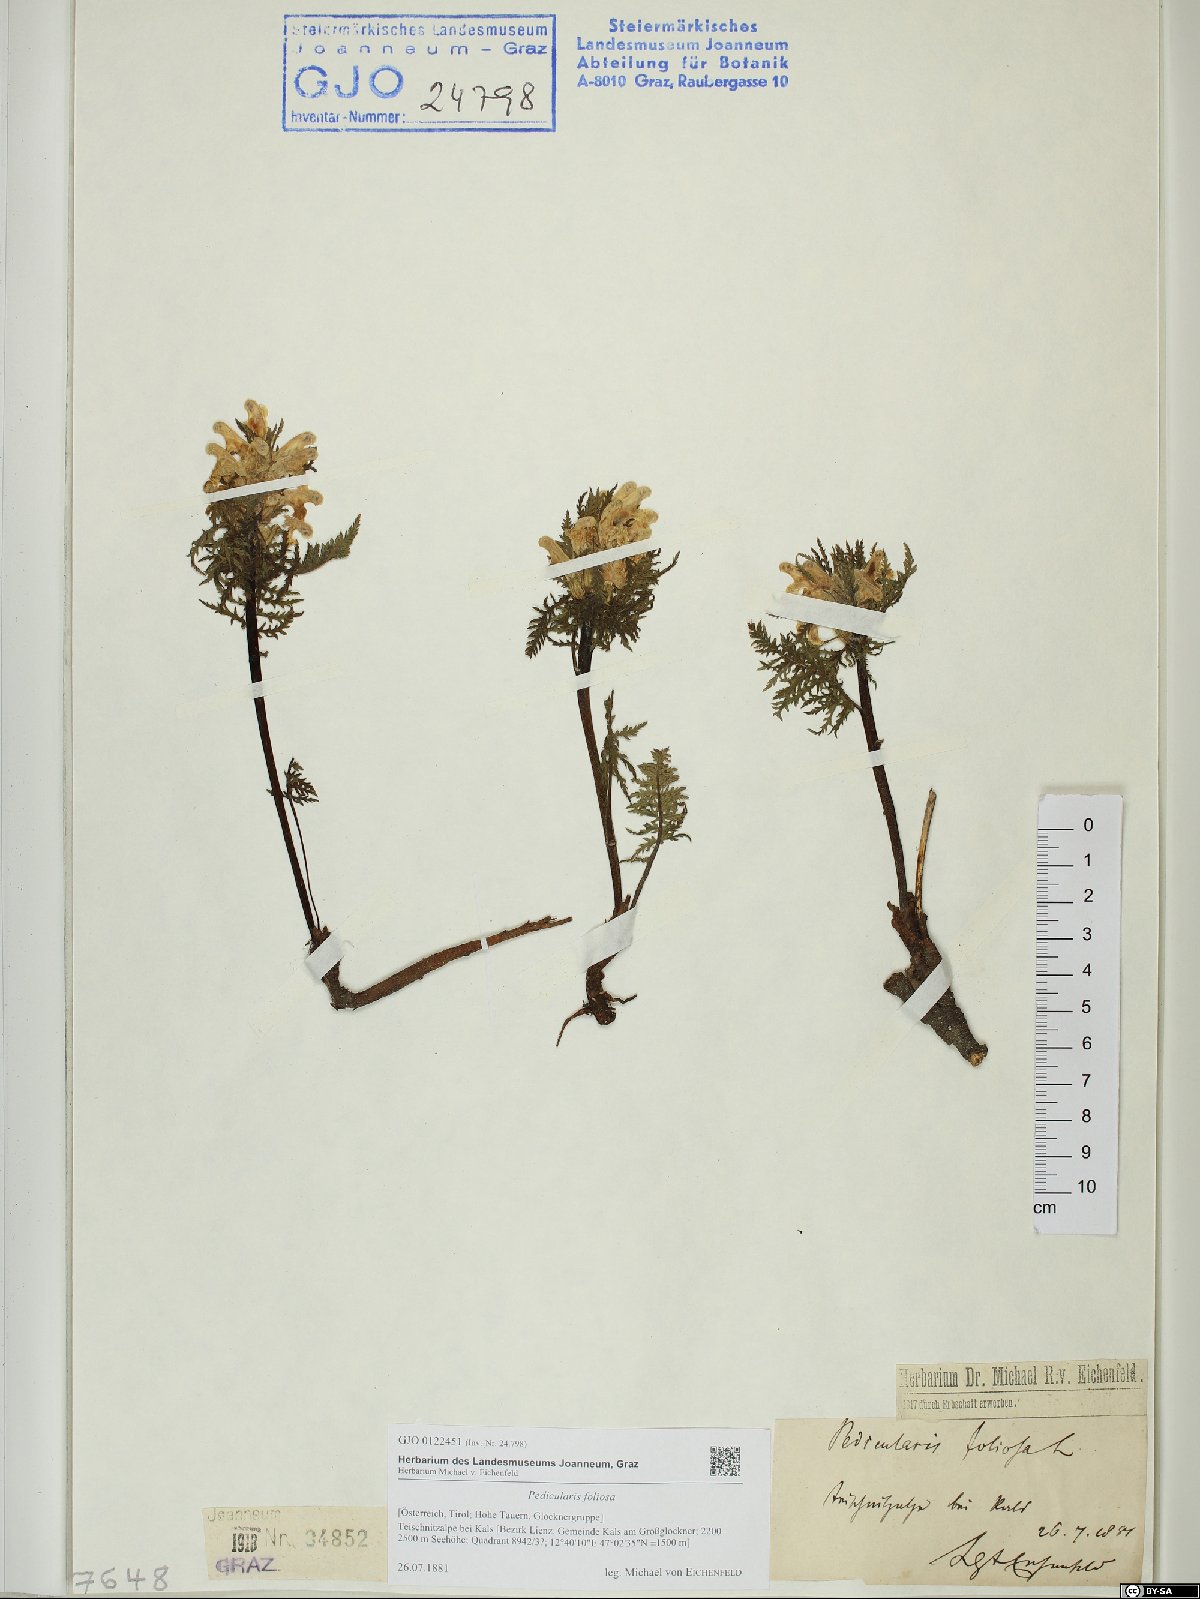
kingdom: Plantae
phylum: Tracheophyta
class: Magnoliopsida
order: Lamiales
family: Orobanchaceae
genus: Pedicularis
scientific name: Pedicularis foliosa
